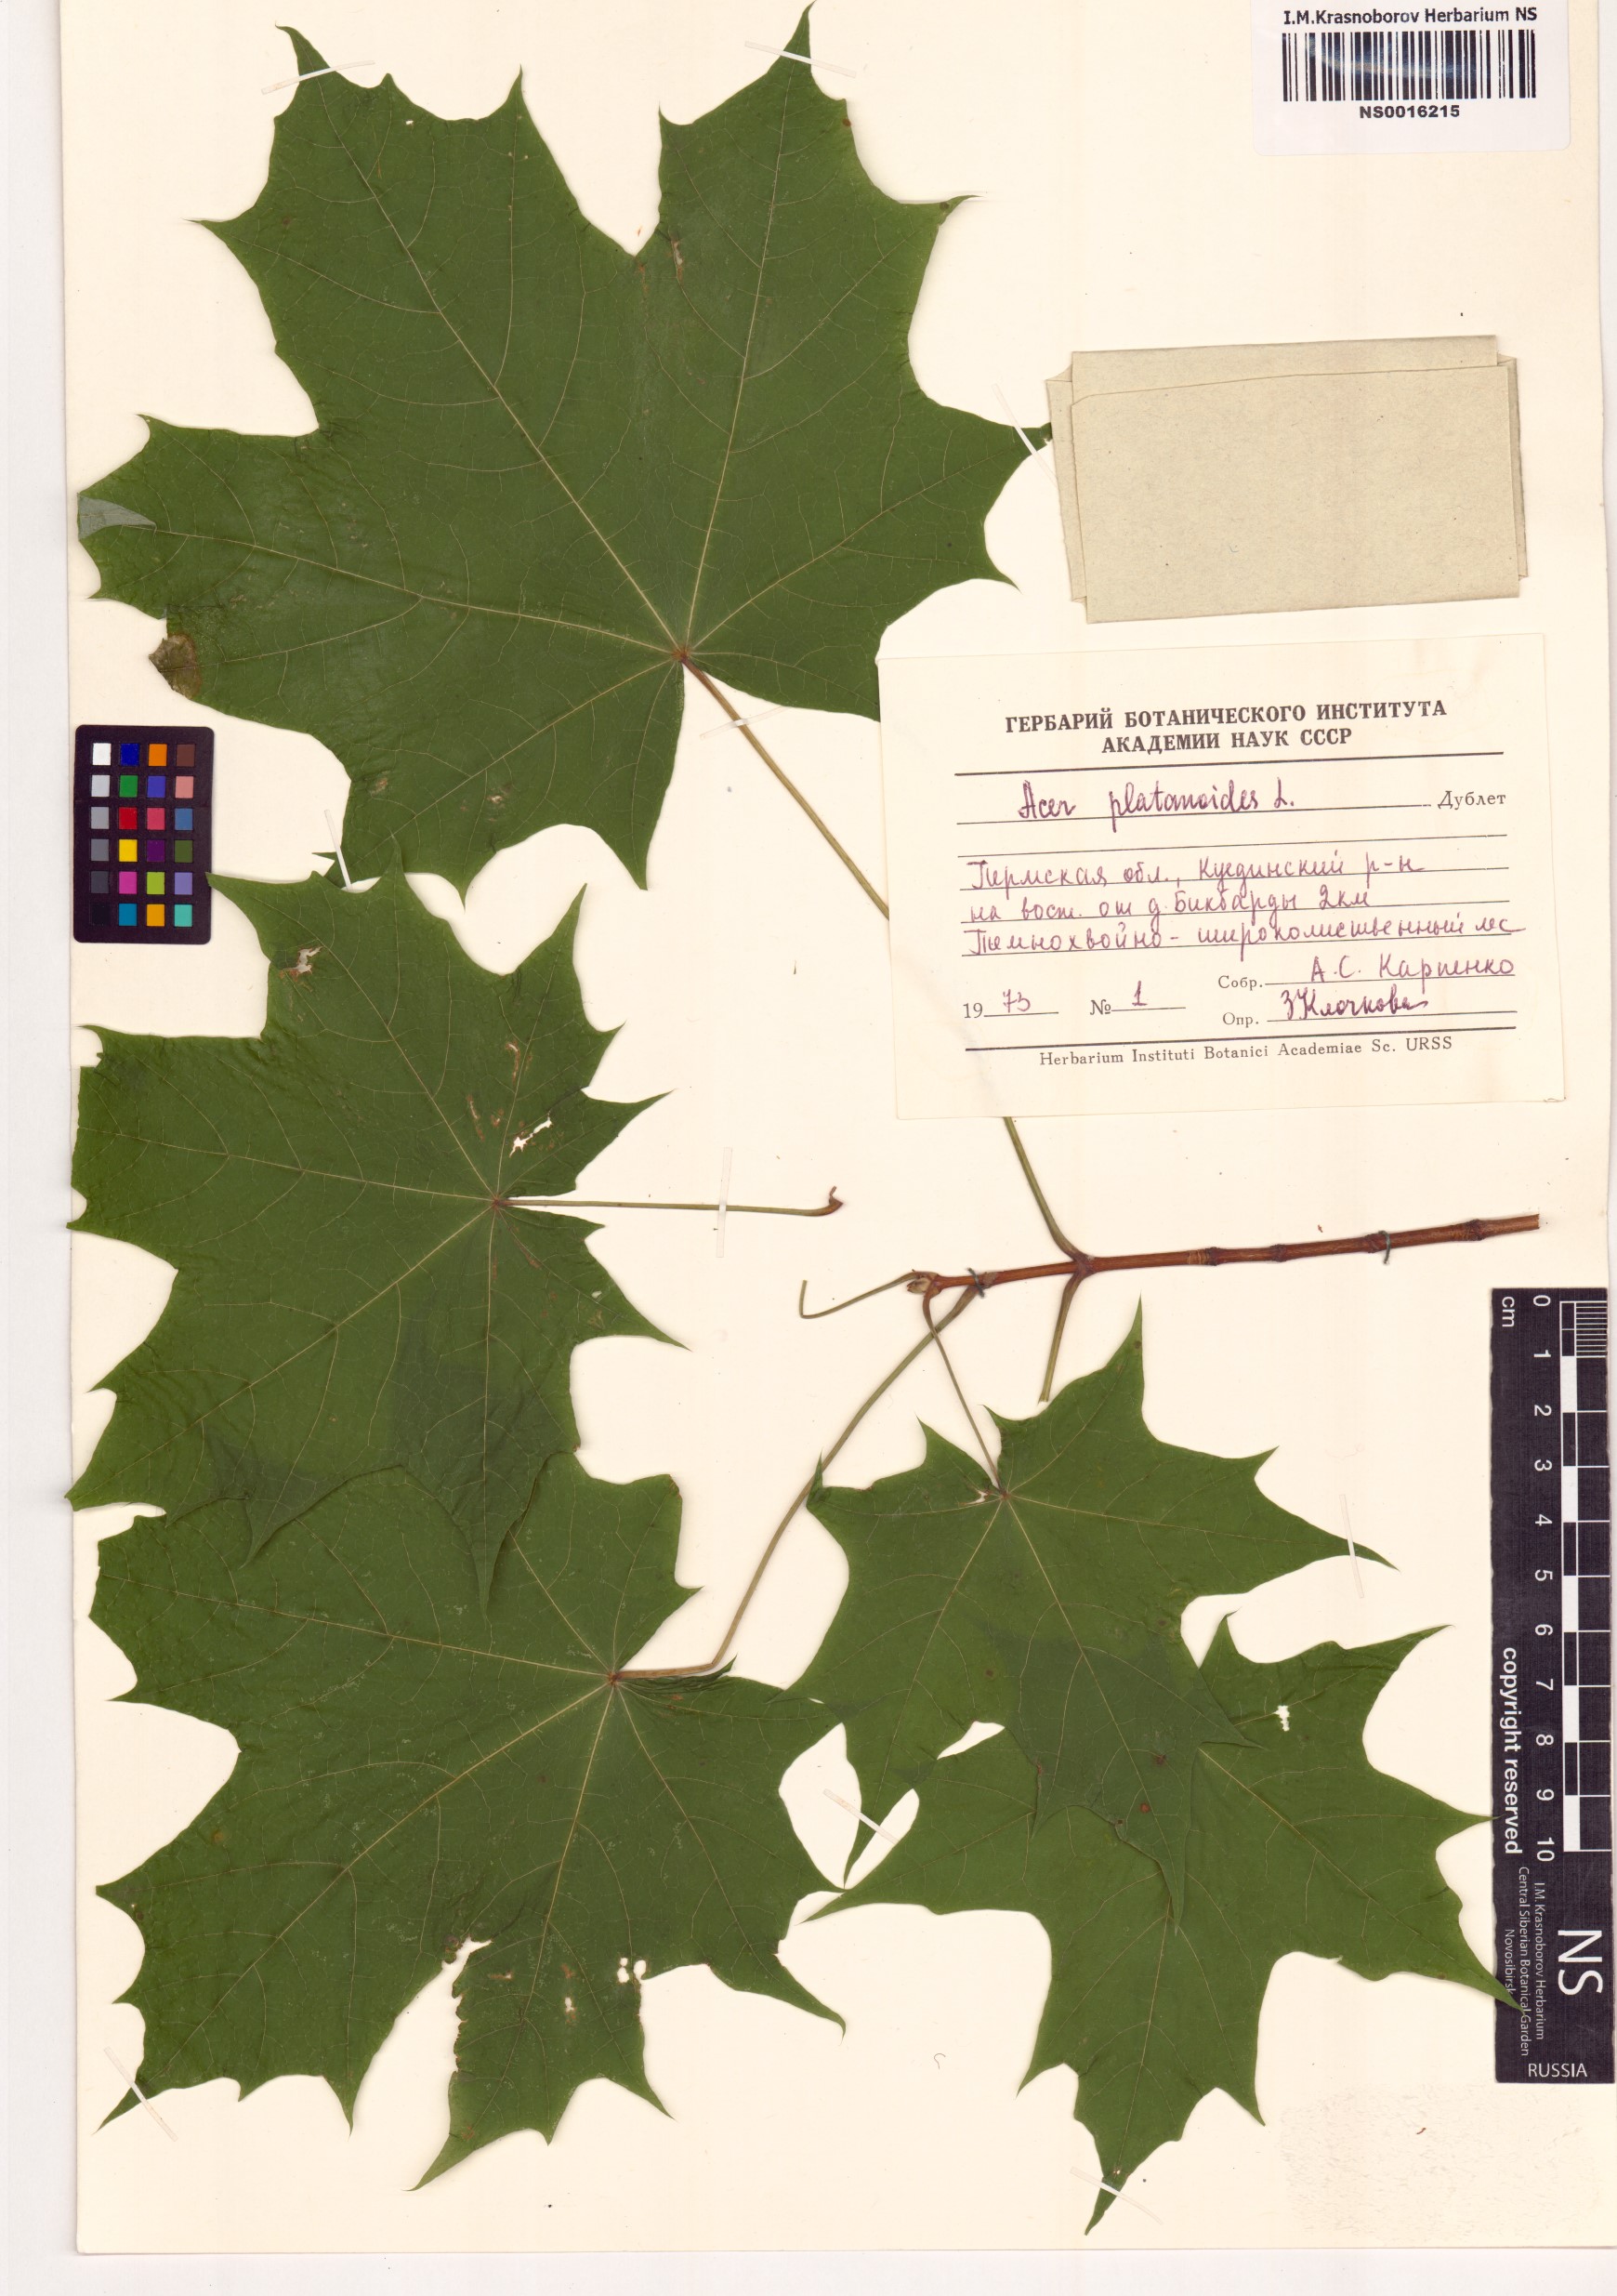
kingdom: Plantae
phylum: Tracheophyta
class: Magnoliopsida
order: Sapindales
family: Sapindaceae
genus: Acer
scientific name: Acer platanoides
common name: Norway maple
